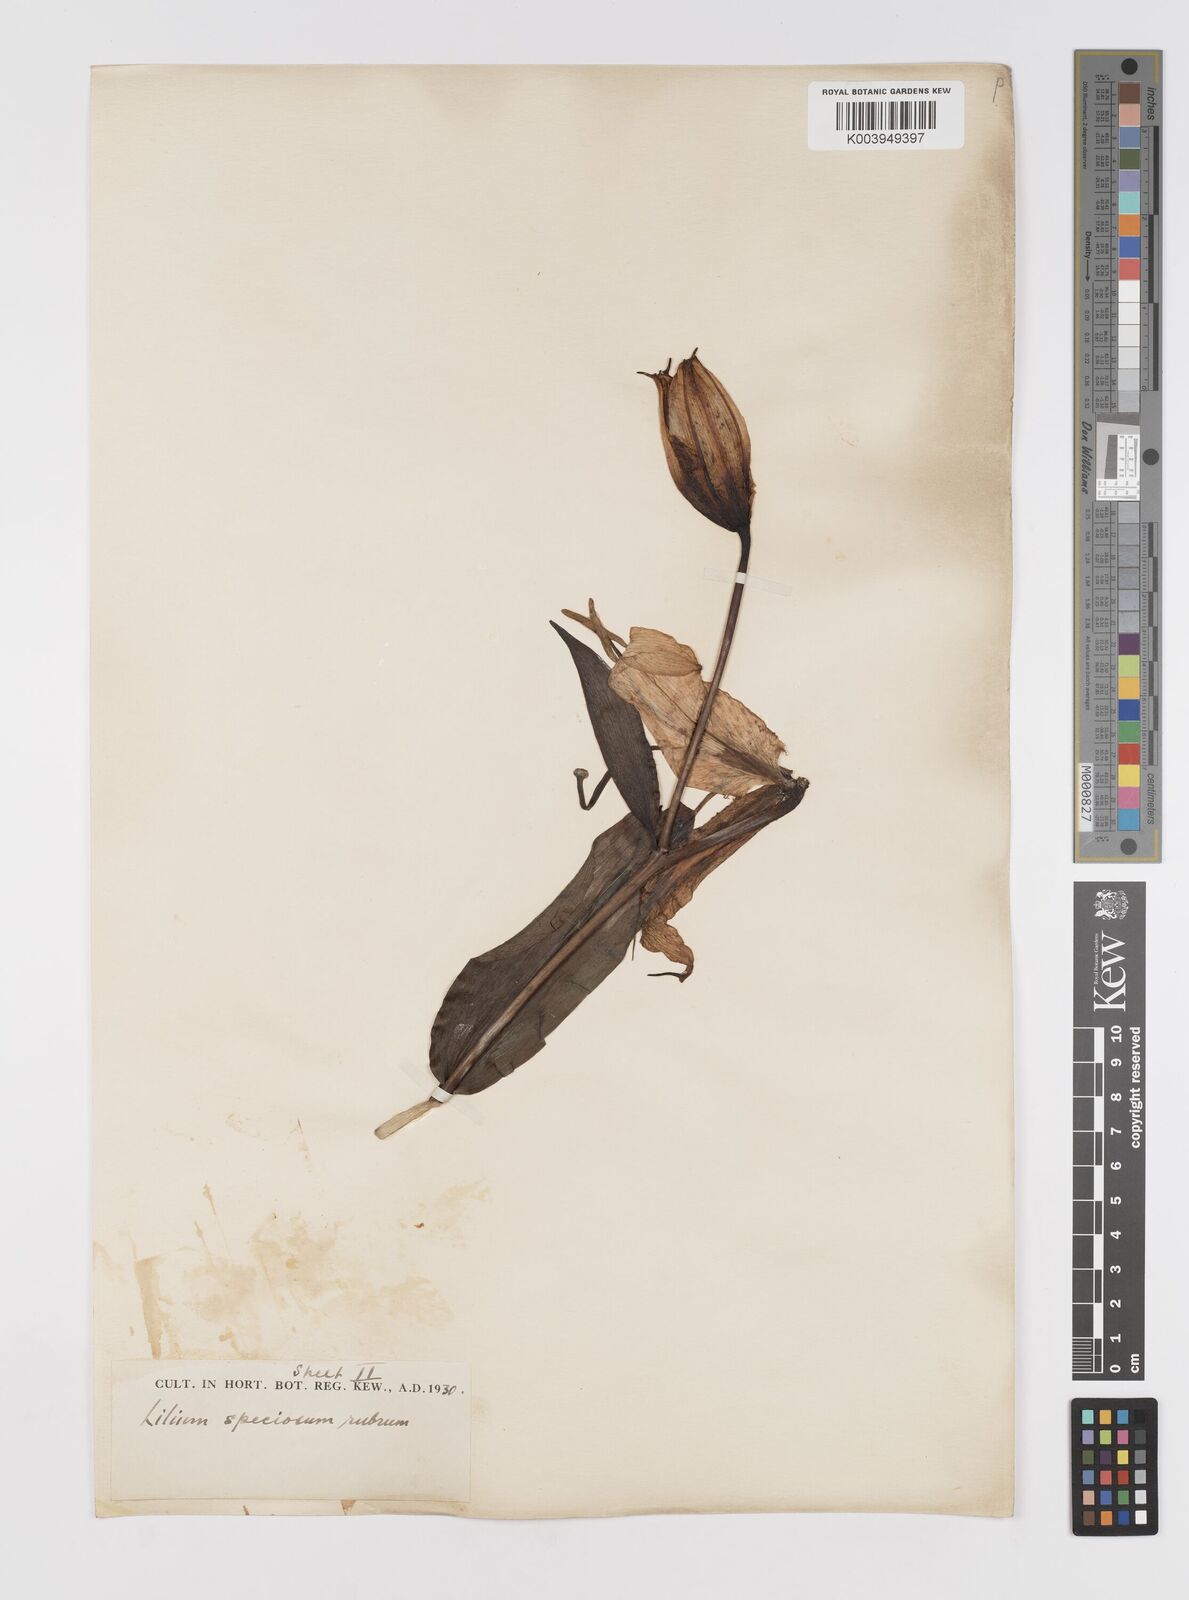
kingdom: Plantae
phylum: Tracheophyta
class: Liliopsida
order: Liliales
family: Liliaceae
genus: Lilium
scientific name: Lilium speciosum
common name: Japanese lily
